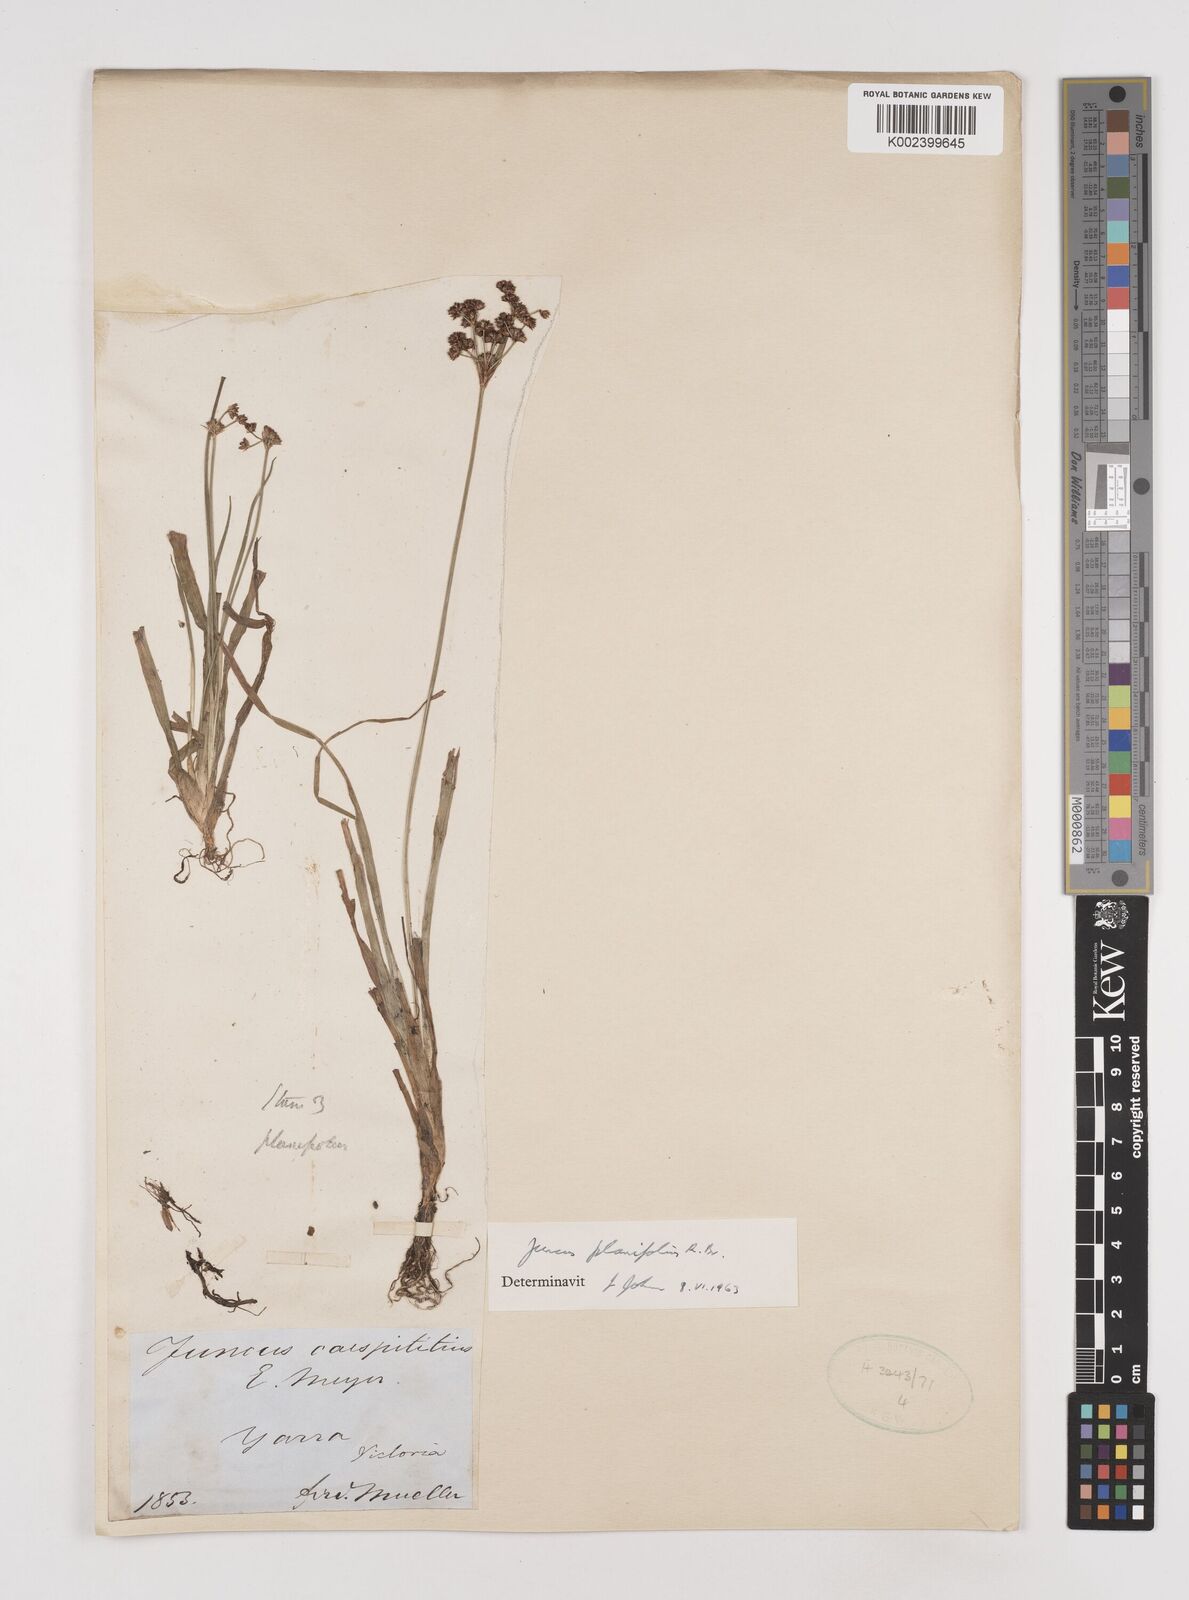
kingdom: Plantae
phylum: Tracheophyta
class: Liliopsida
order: Poales
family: Juncaceae
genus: Juncus
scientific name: Juncus planifolius
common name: Broadleaf rush
